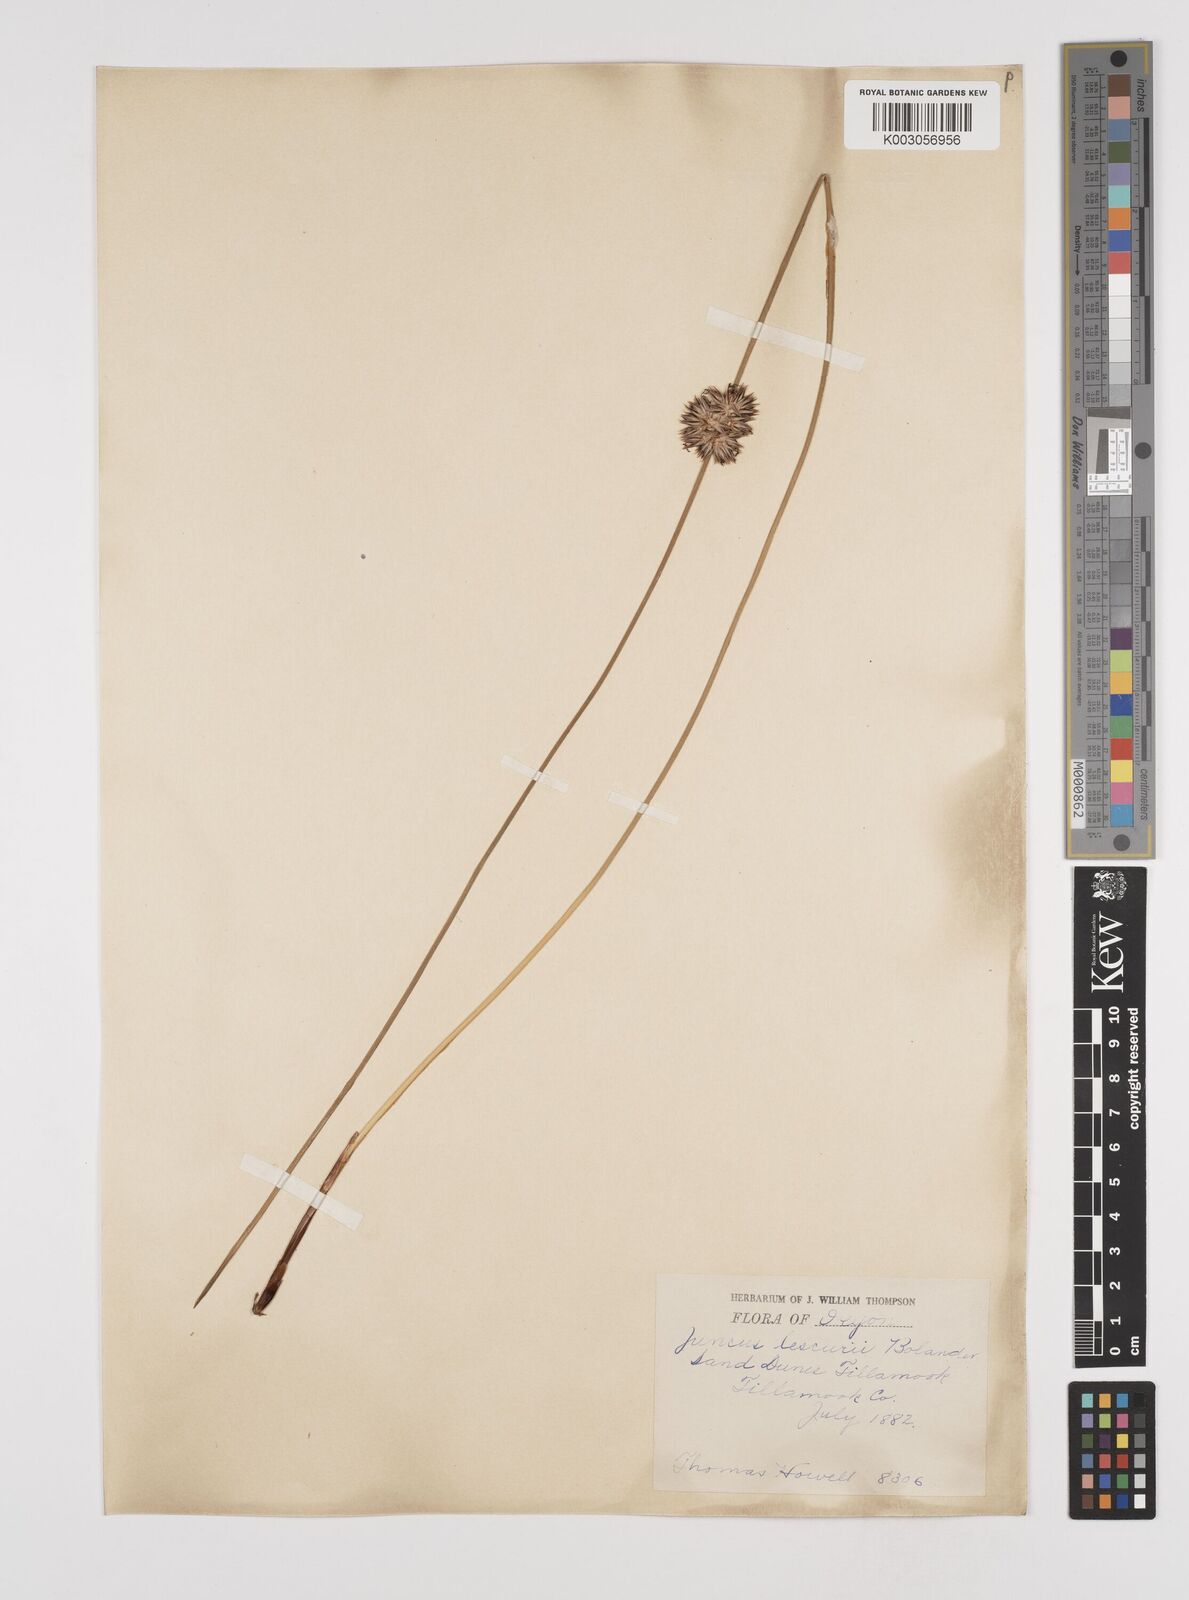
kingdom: Plantae
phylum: Tracheophyta
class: Liliopsida
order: Poales
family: Juncaceae
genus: Juncus
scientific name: Juncus lesueurii
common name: Lesueur's rush
